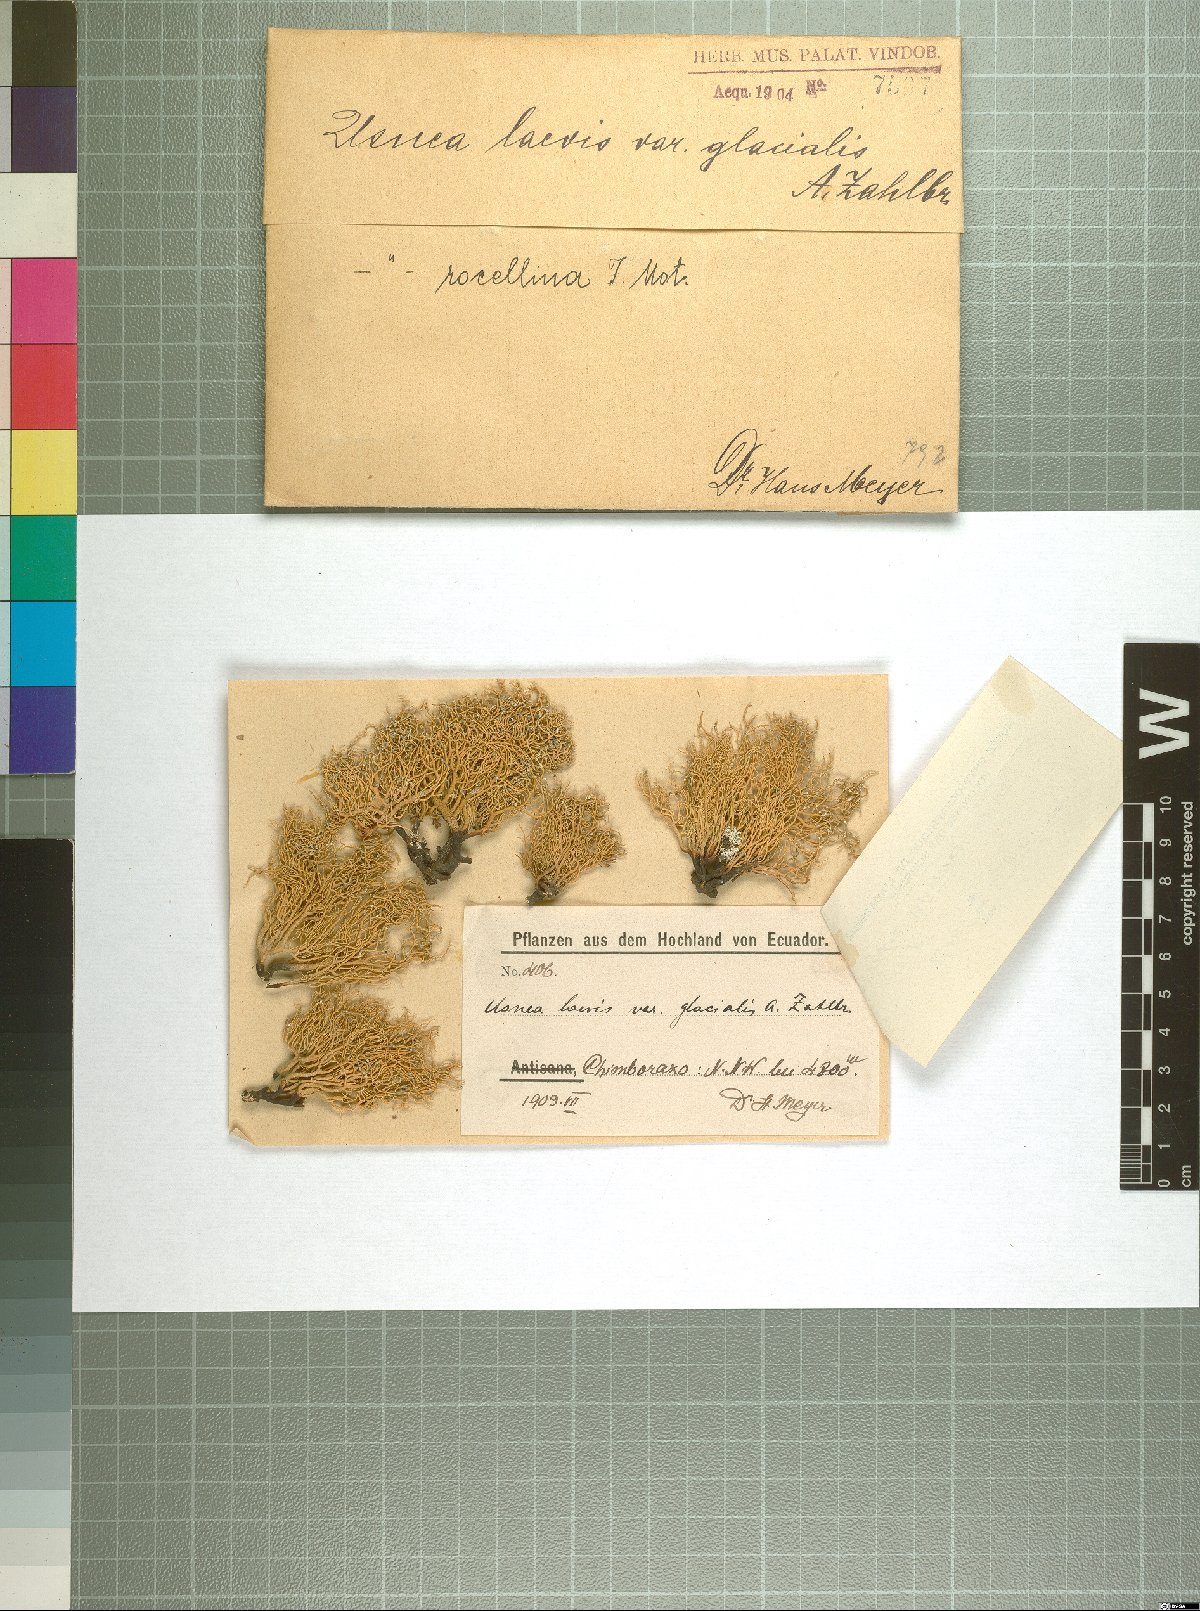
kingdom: Fungi
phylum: Ascomycota
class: Lecanoromycetes
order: Lecanorales
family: Parmeliaceae
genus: Usnea
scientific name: Usnea roccellina
